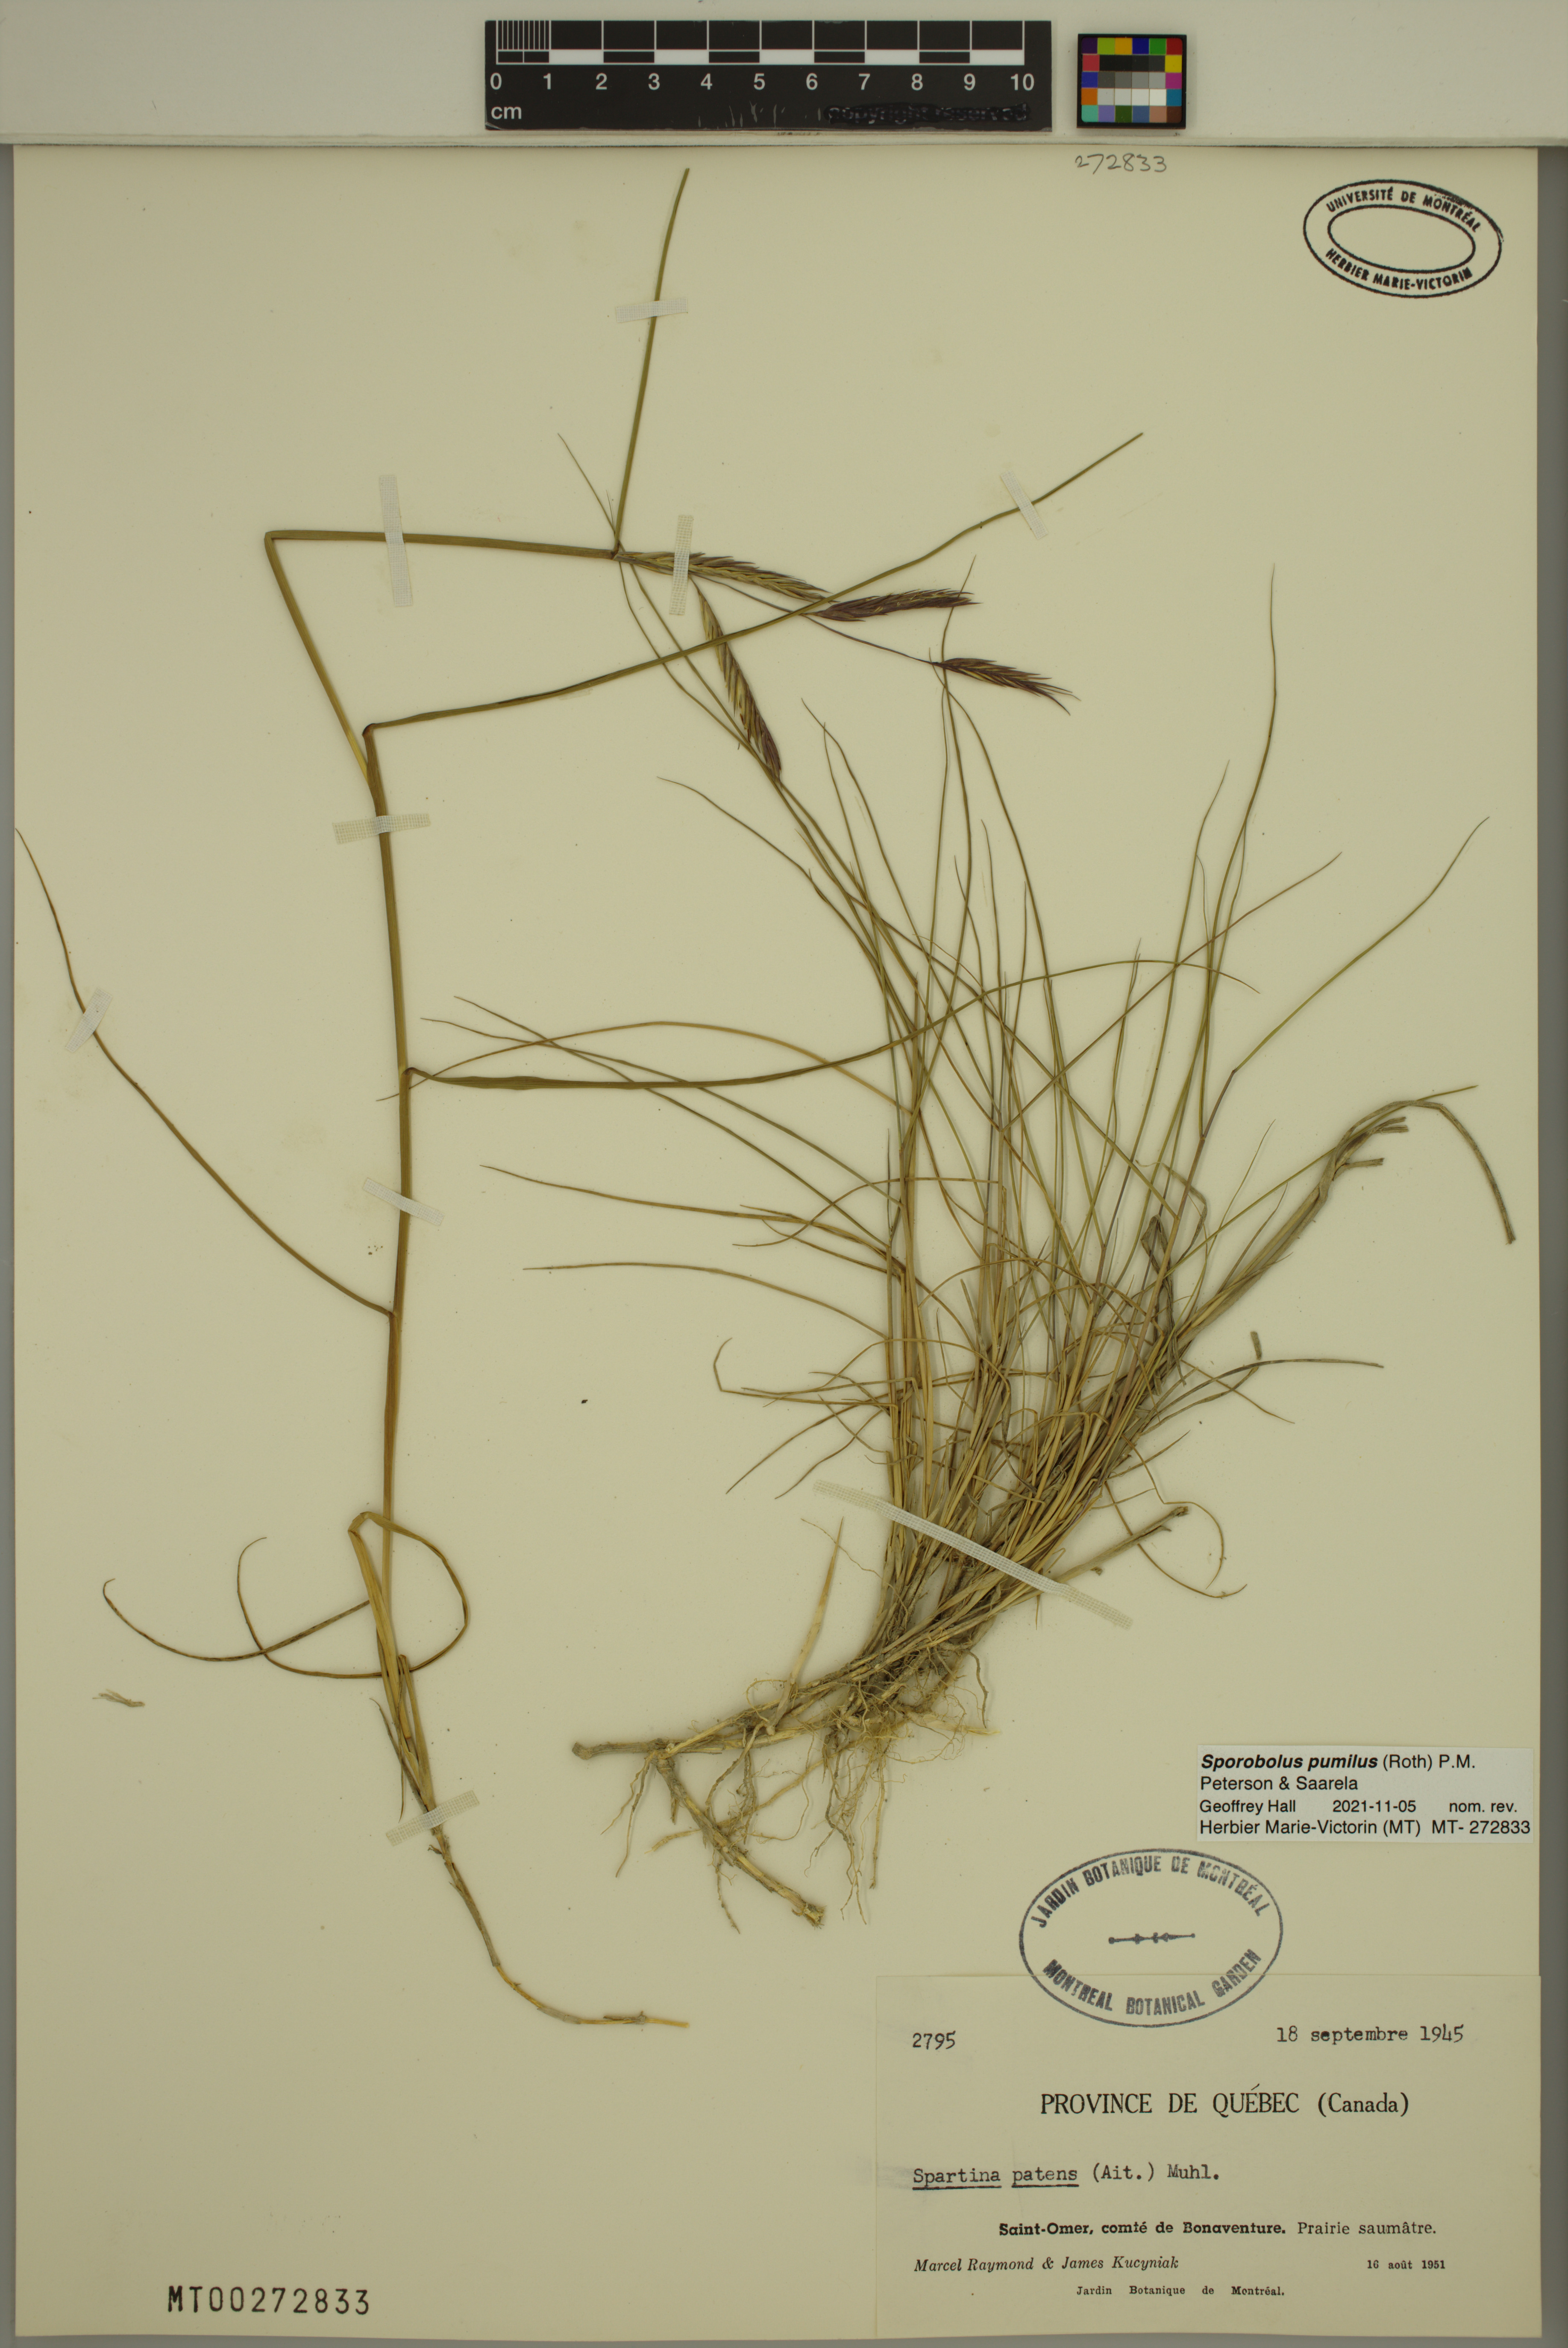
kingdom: Plantae
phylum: Tracheophyta
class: Liliopsida
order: Poales
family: Poaceae
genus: Sporobolus
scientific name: Sporobolus pumilus
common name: Highwater grass
